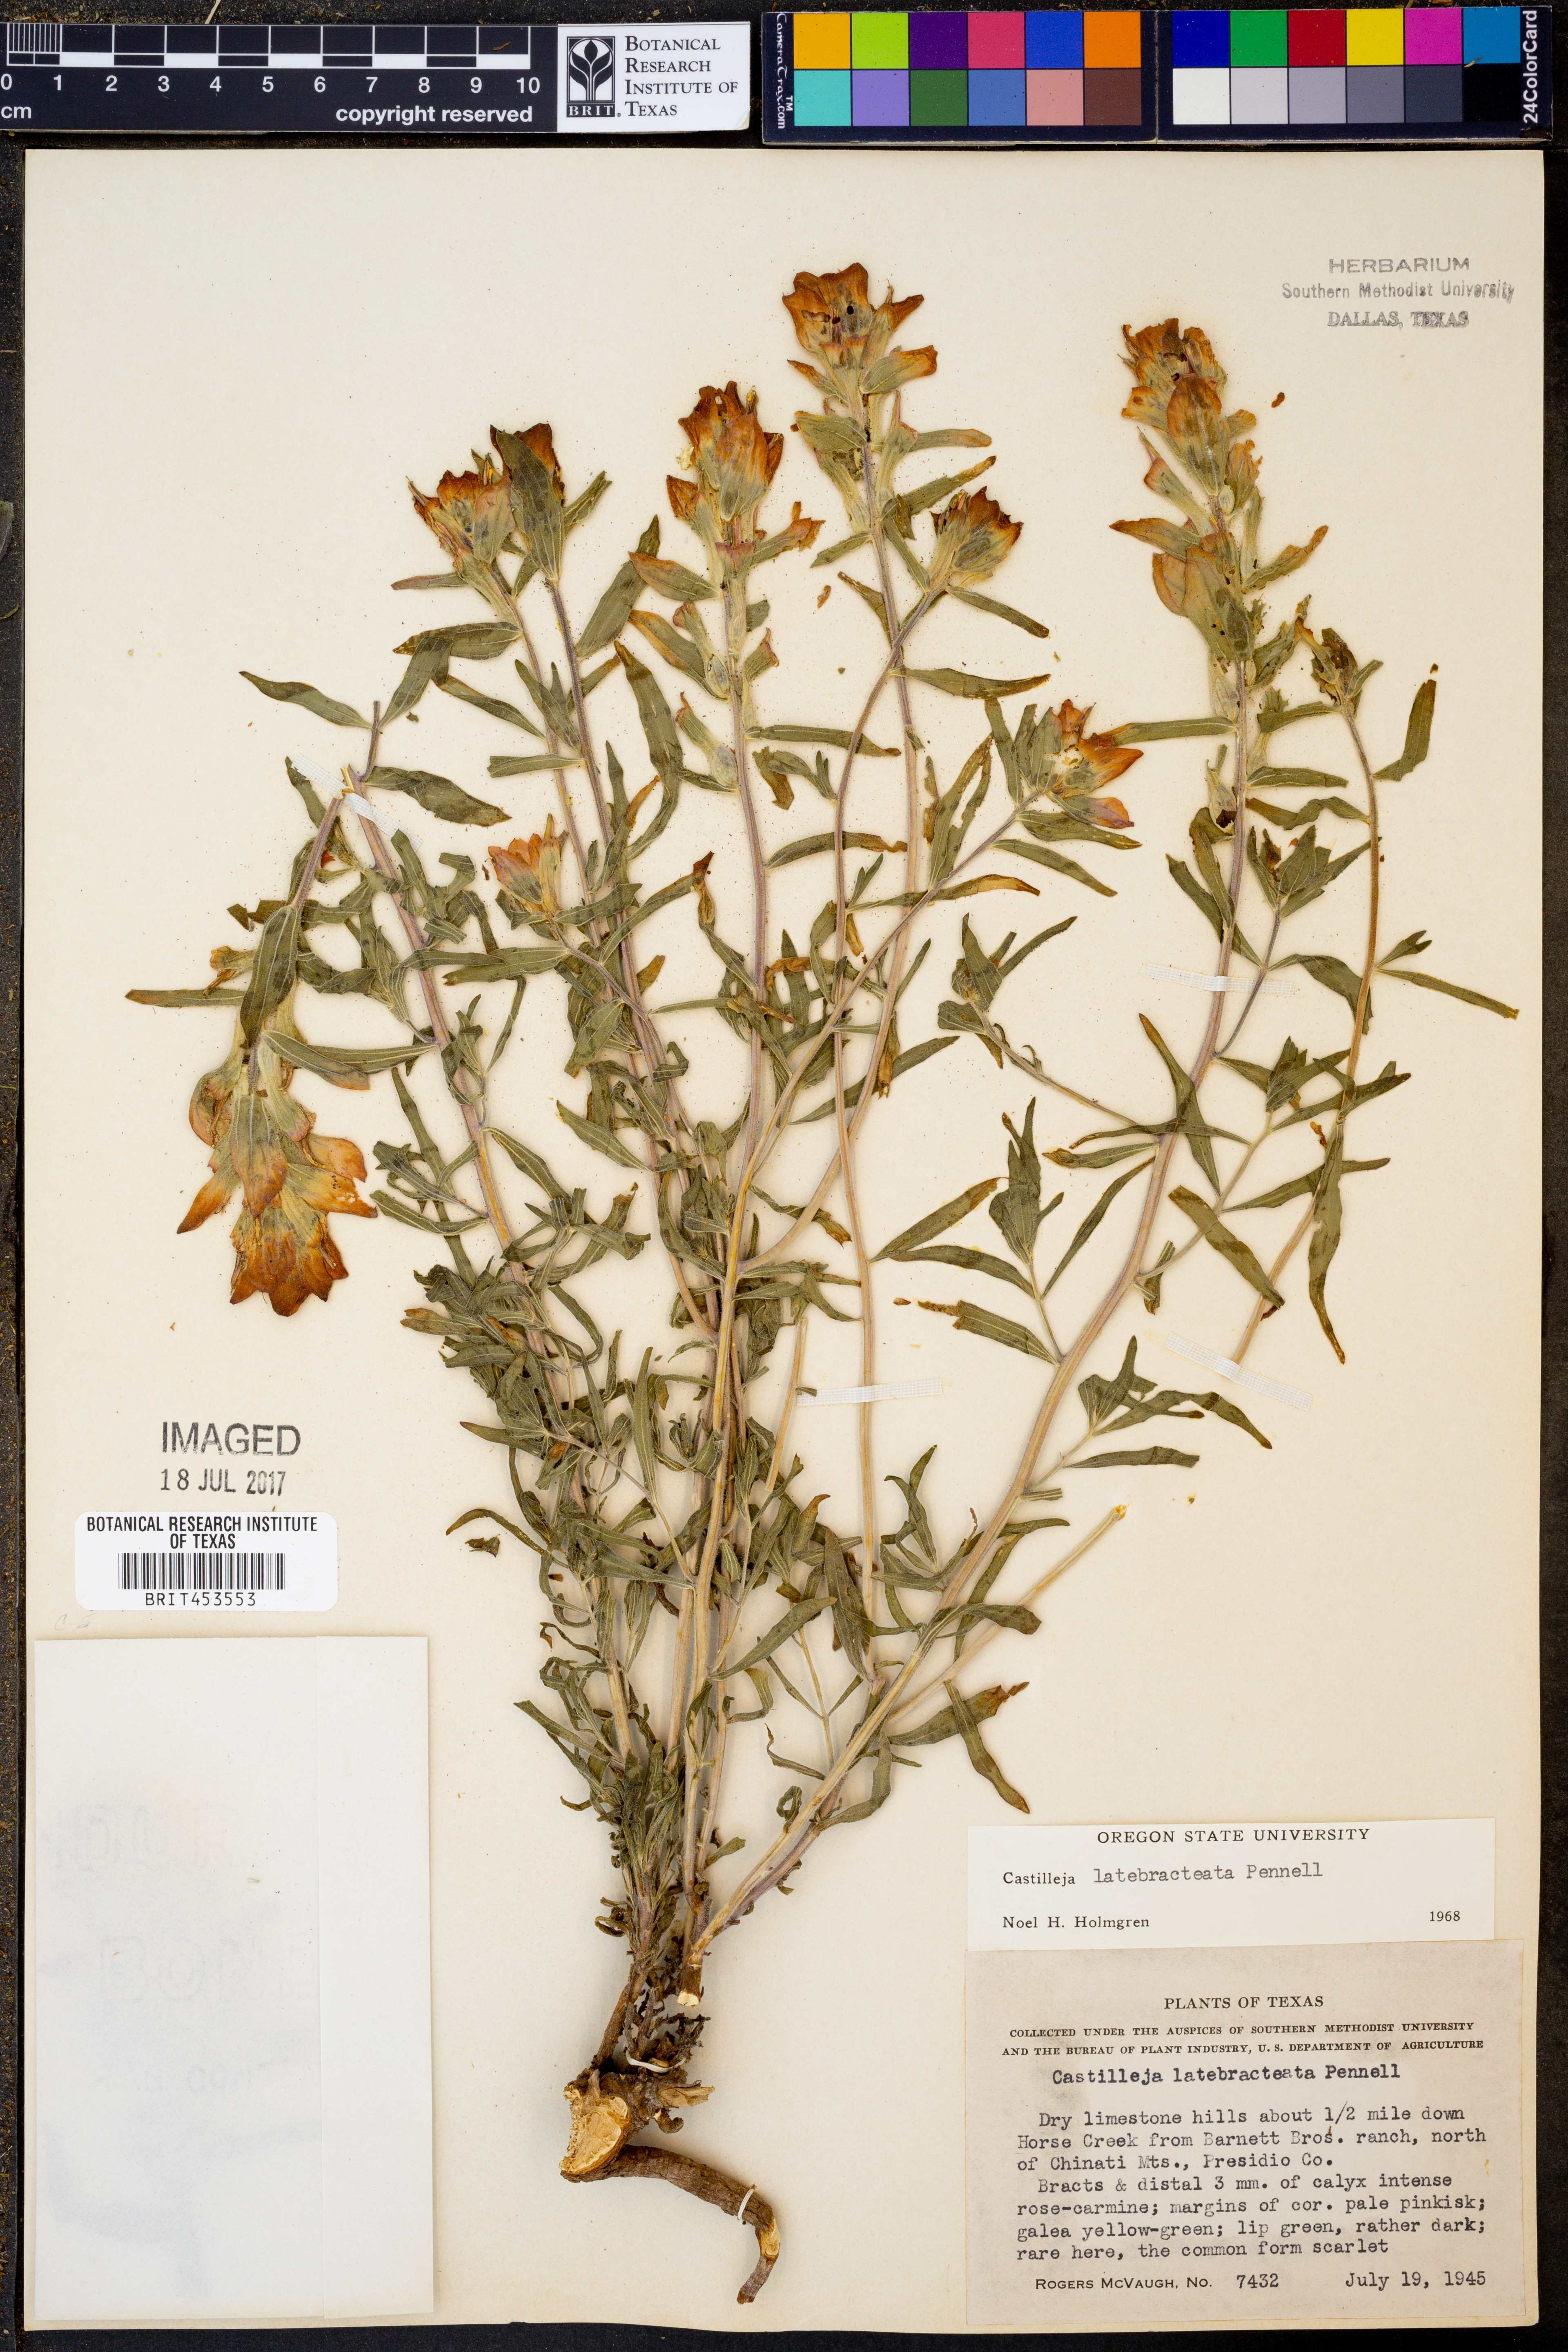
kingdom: Plantae
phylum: Tracheophyta
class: Magnoliopsida
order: Lamiales
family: Orobanchaceae
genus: Castilleja
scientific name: Castilleja rigida
